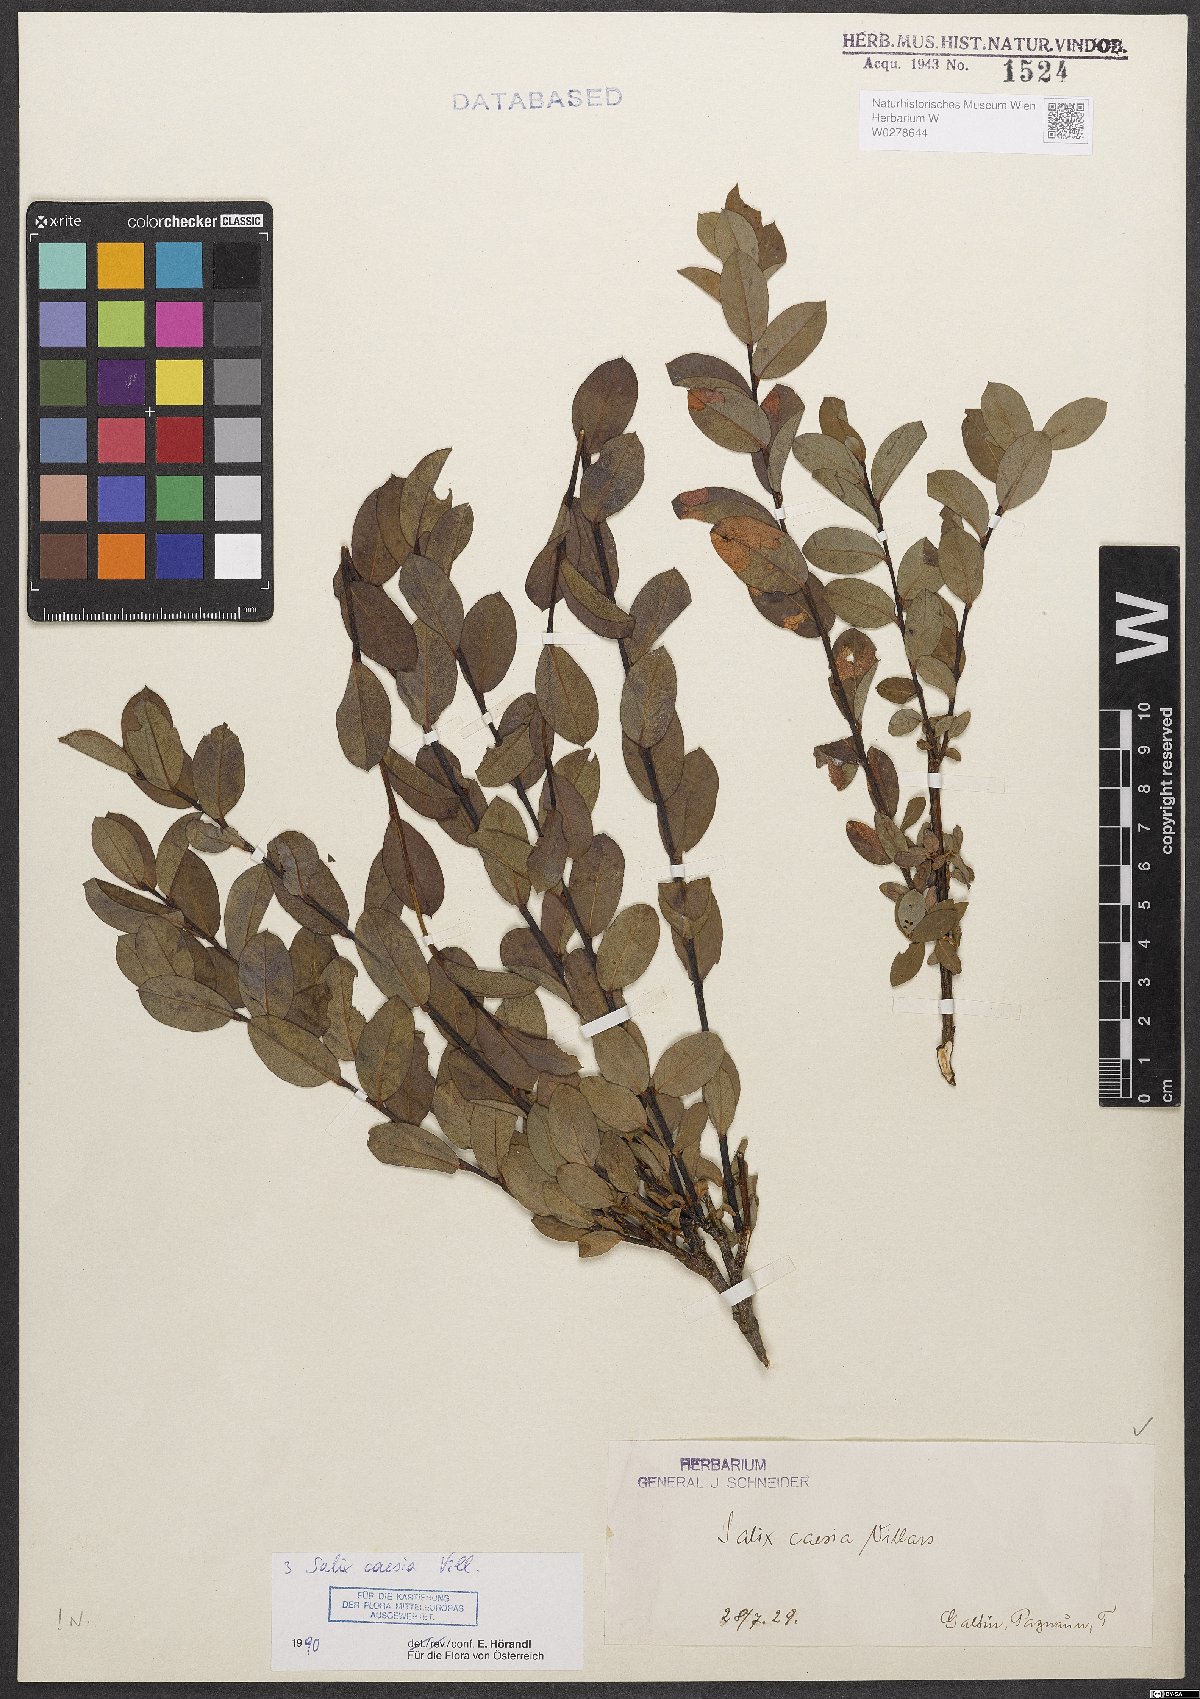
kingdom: Plantae
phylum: Tracheophyta
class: Magnoliopsida
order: Malpighiales
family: Salicaceae
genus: Salix
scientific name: Salix caesia
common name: Blue willow
